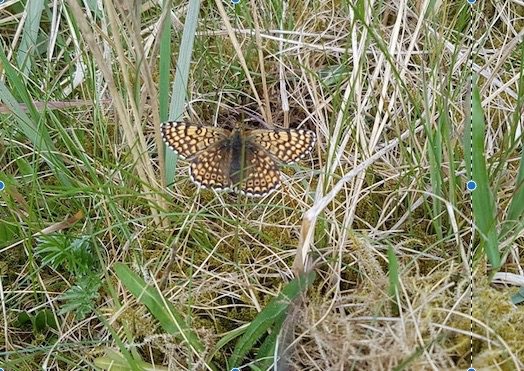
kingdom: Animalia
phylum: Arthropoda
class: Insecta
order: Lepidoptera
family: Nymphalidae
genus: Melitaea
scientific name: Melitaea cinxia
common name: Okkergul pletvinge
